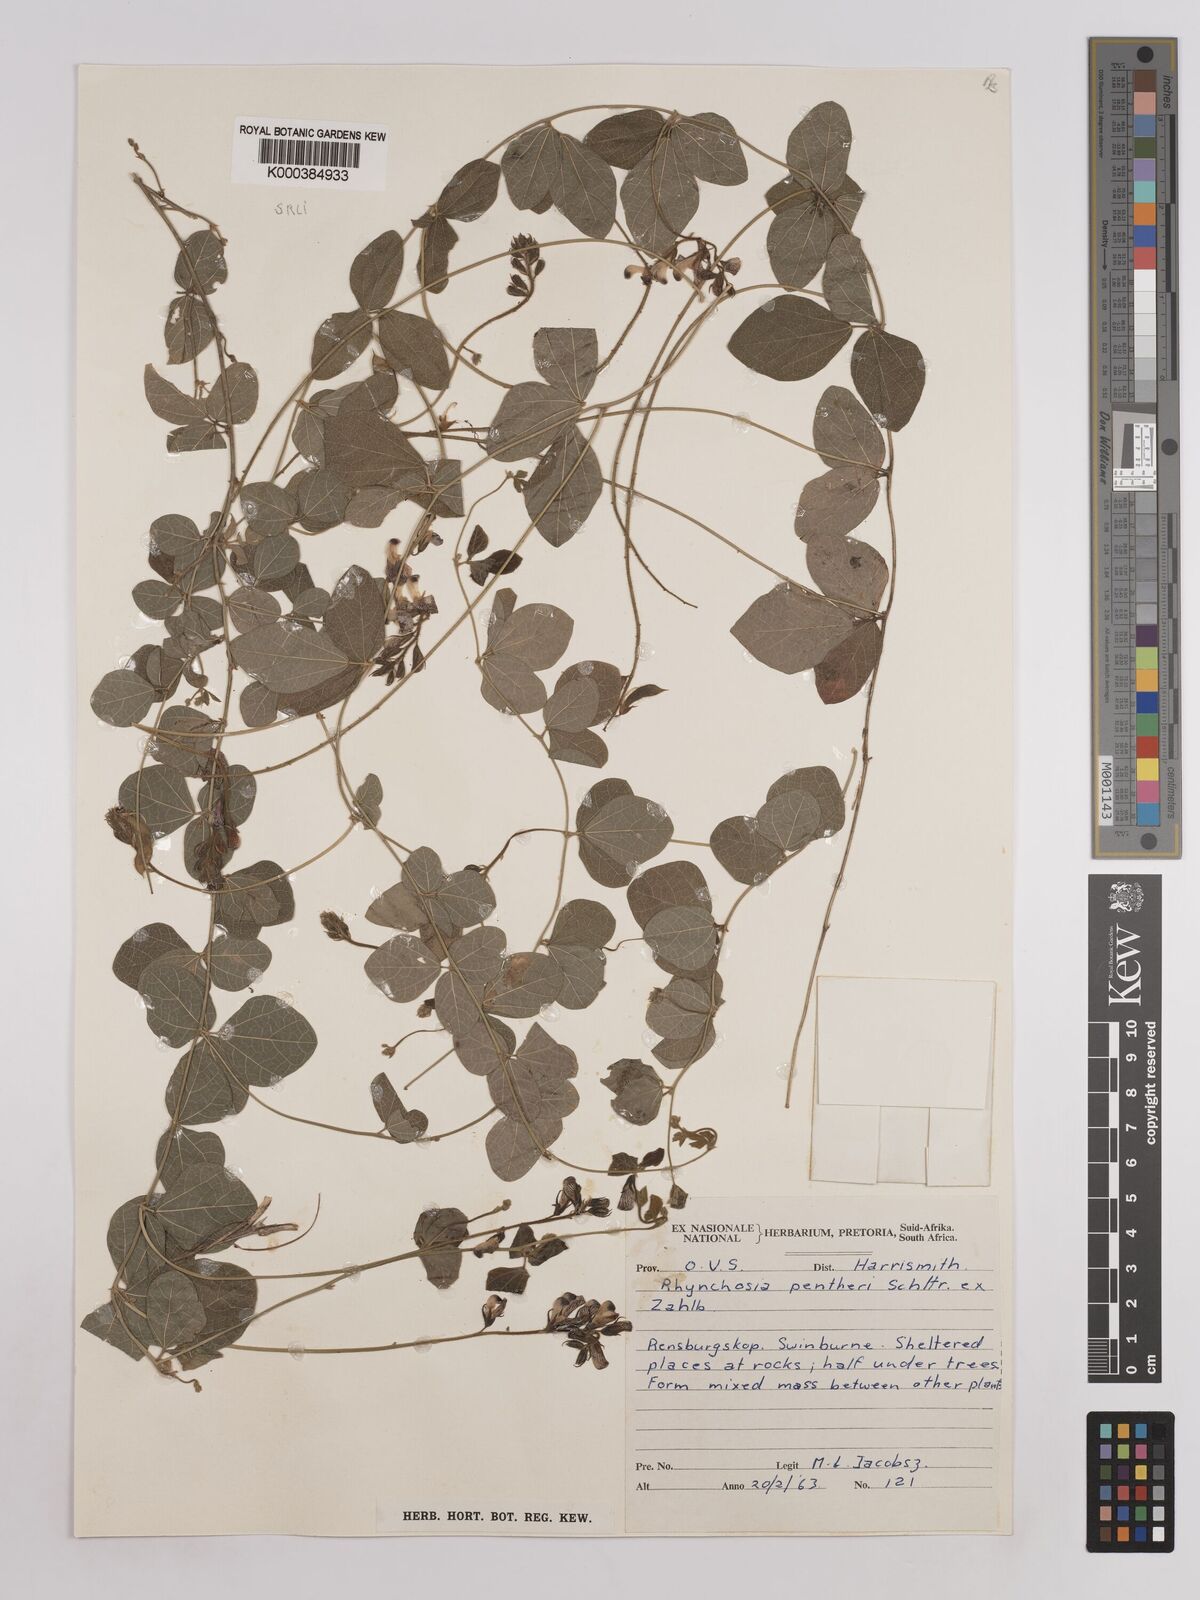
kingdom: Plantae
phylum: Tracheophyta
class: Magnoliopsida
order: Fabales
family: Fabaceae
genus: Rhynchosia
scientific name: Rhynchosia pentheri
